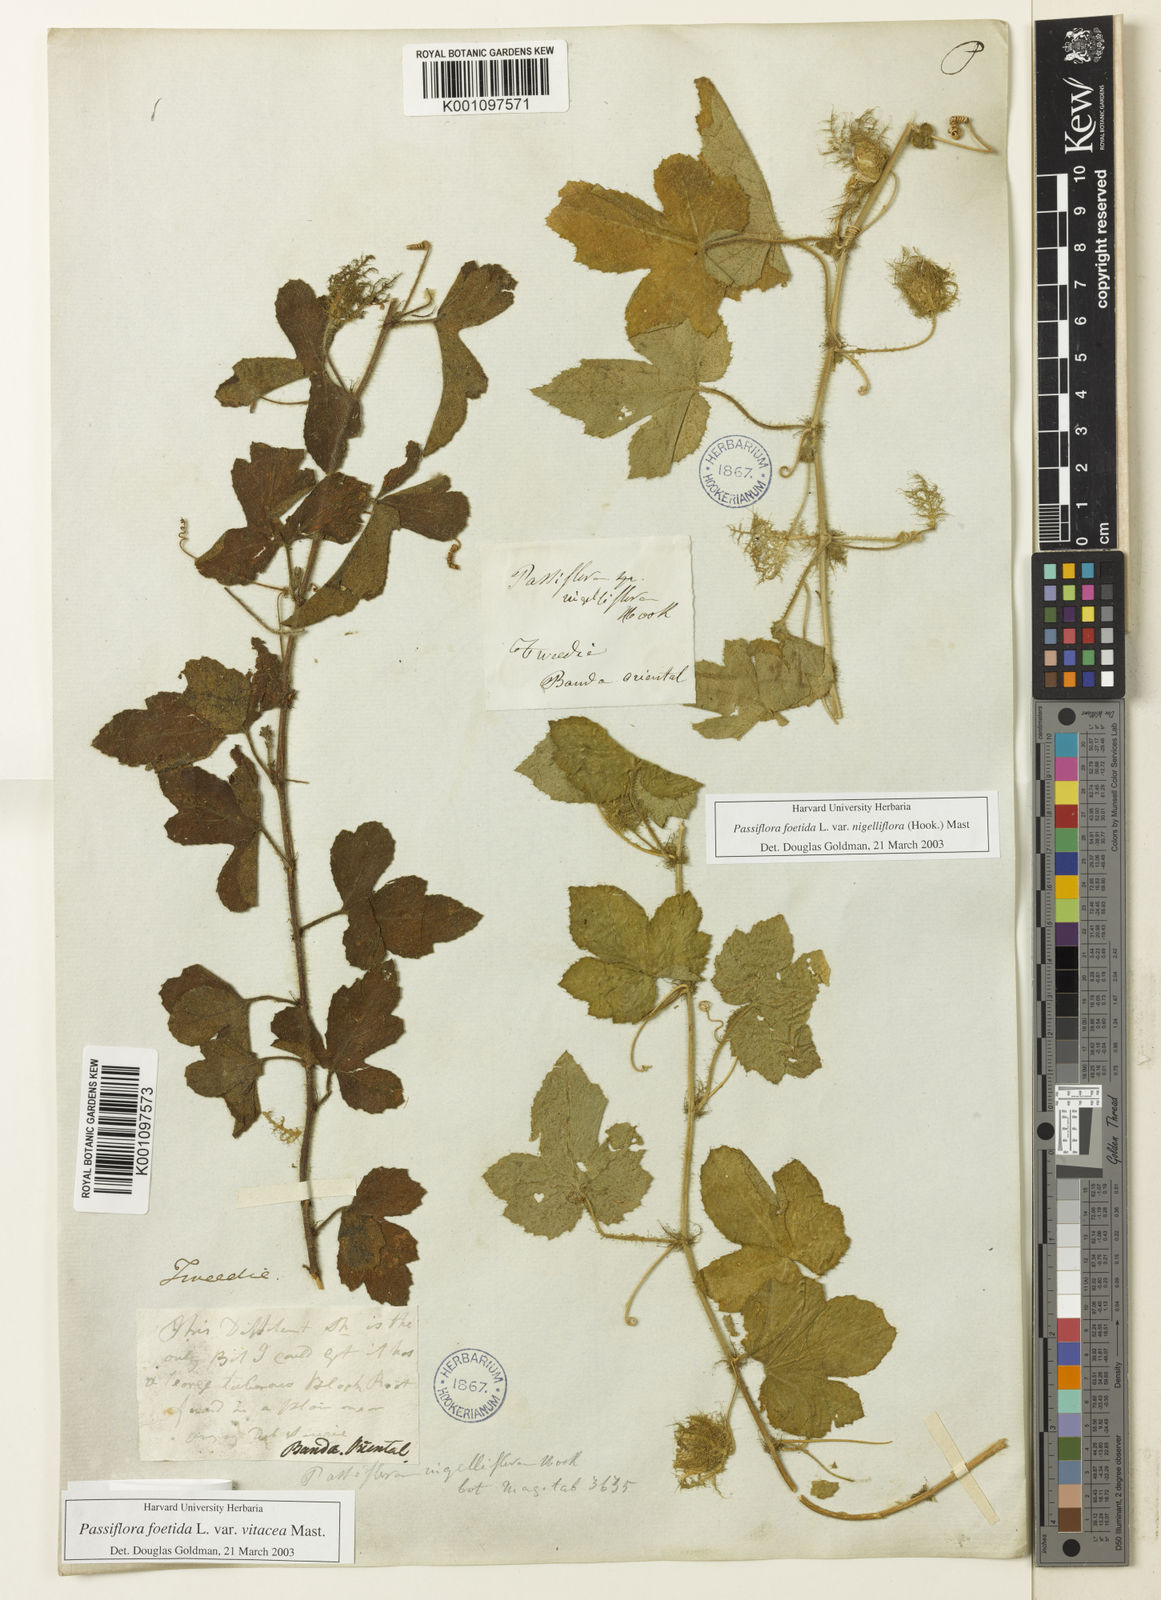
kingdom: Plantae
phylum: Tracheophyta
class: Magnoliopsida
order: Malpighiales
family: Passifloraceae
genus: Passiflora
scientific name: Passiflora foetida
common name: Fetid passionflower
